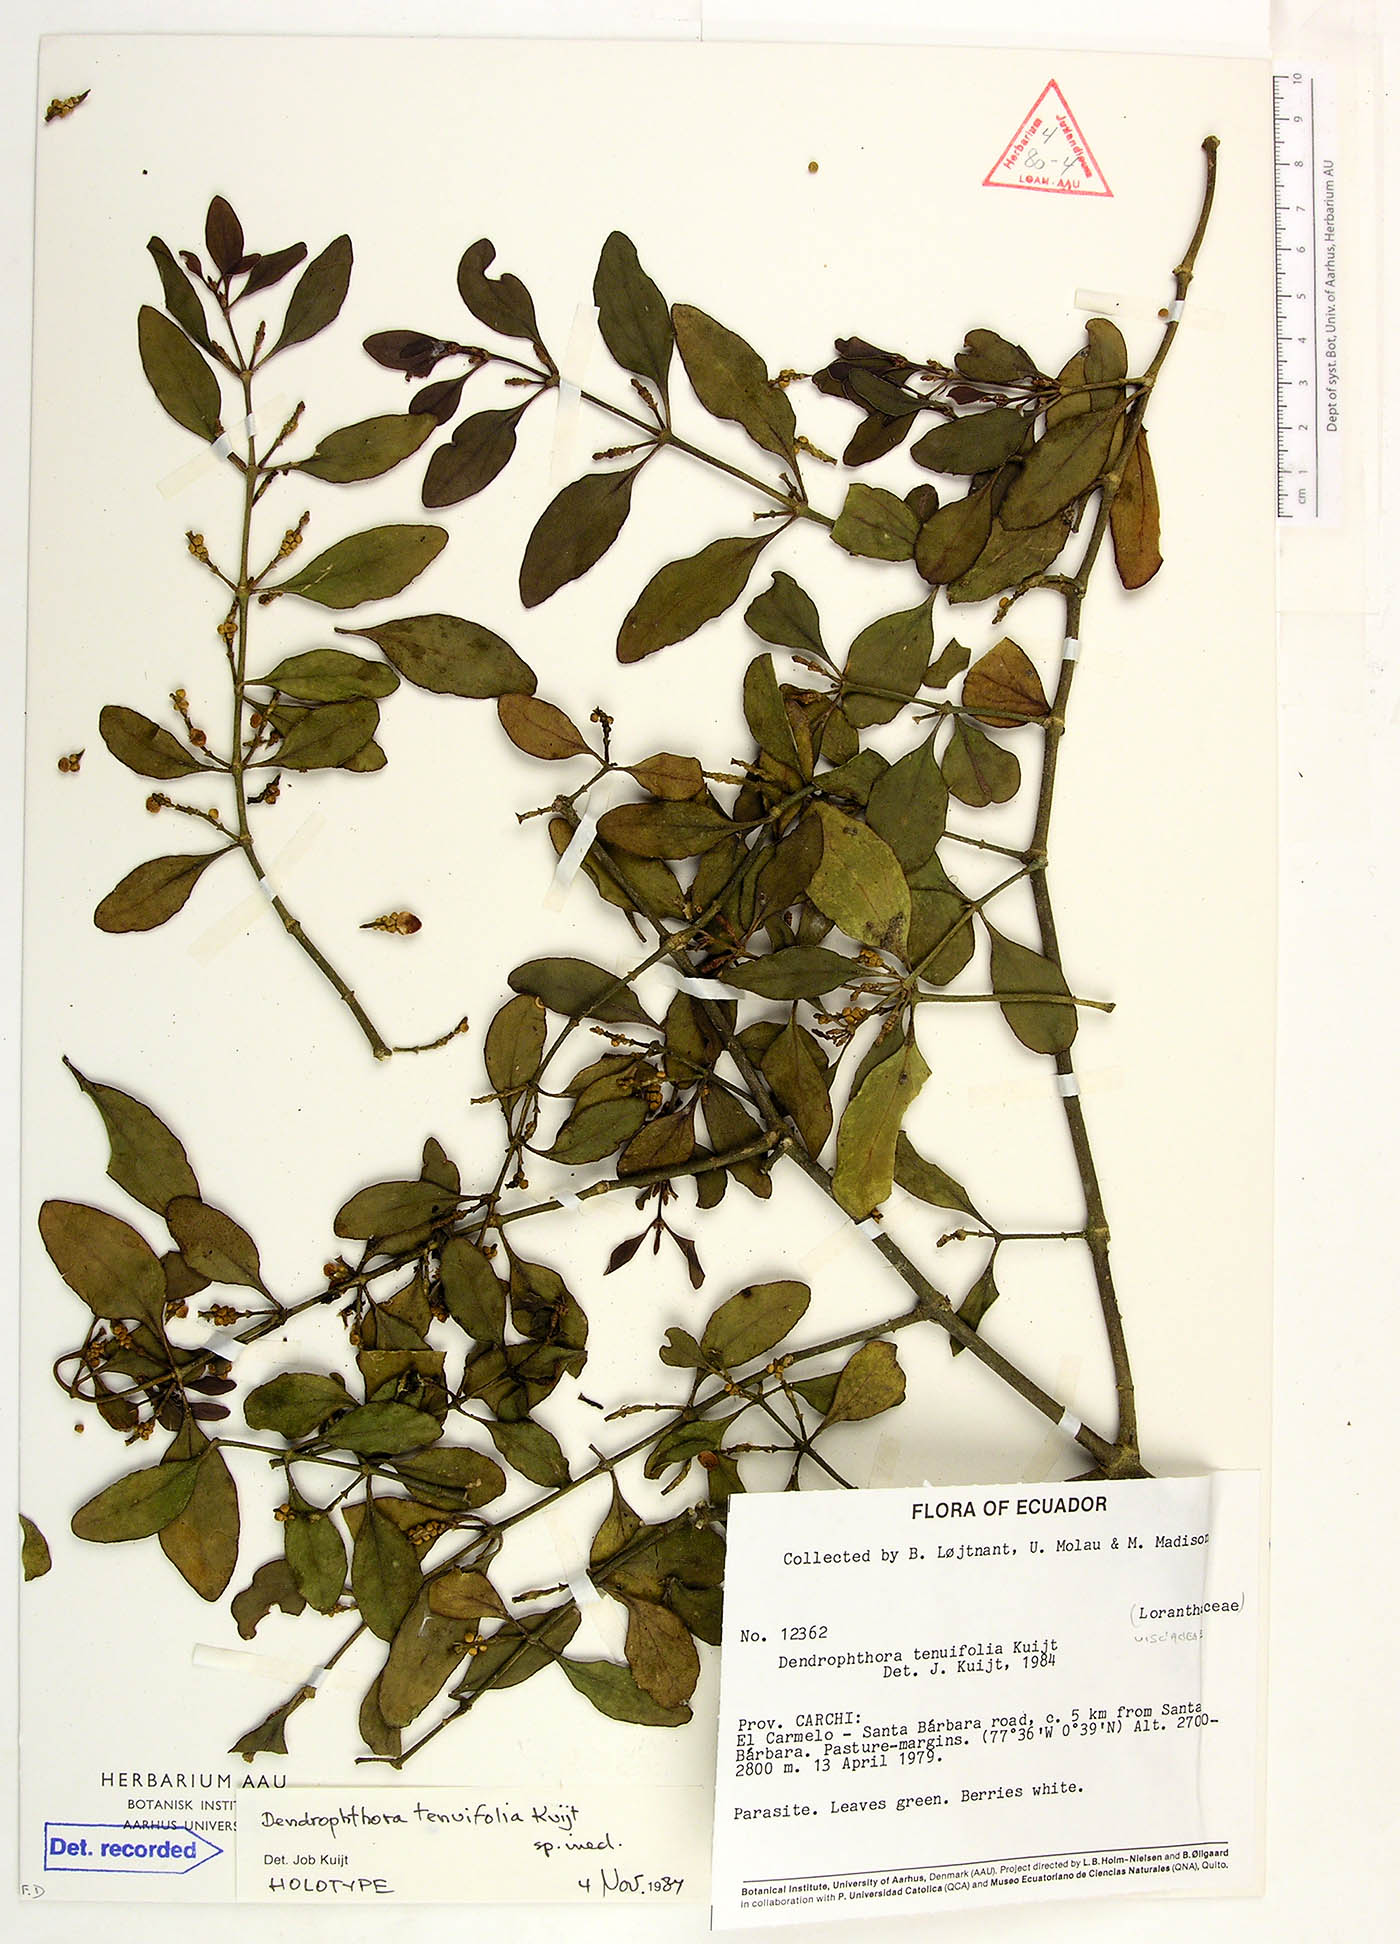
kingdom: Plantae
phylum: Tracheophyta
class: Magnoliopsida
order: Santalales
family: Viscaceae
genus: Dendrophthora
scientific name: Dendrophthora tenuifolia
